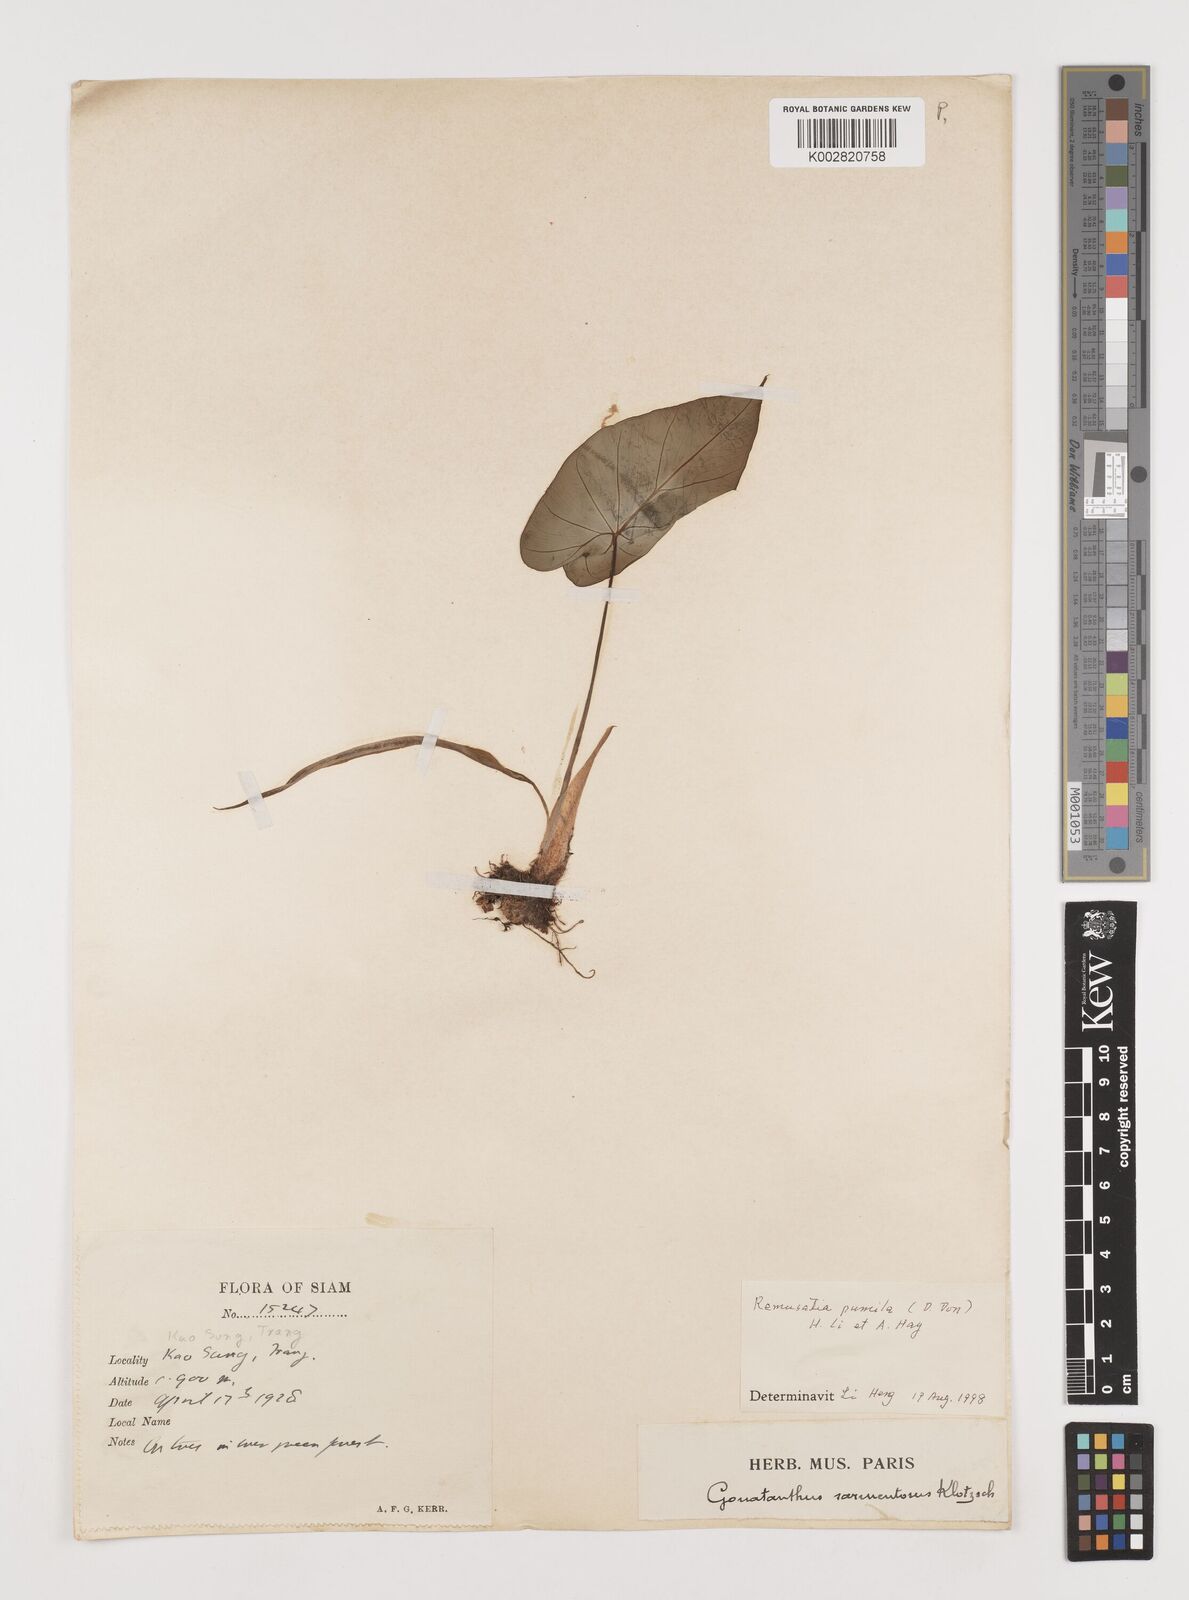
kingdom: Plantae
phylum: Tracheophyta
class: Liliopsida
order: Alismatales
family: Araceae
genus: Remusatia
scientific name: Remusatia pumila
